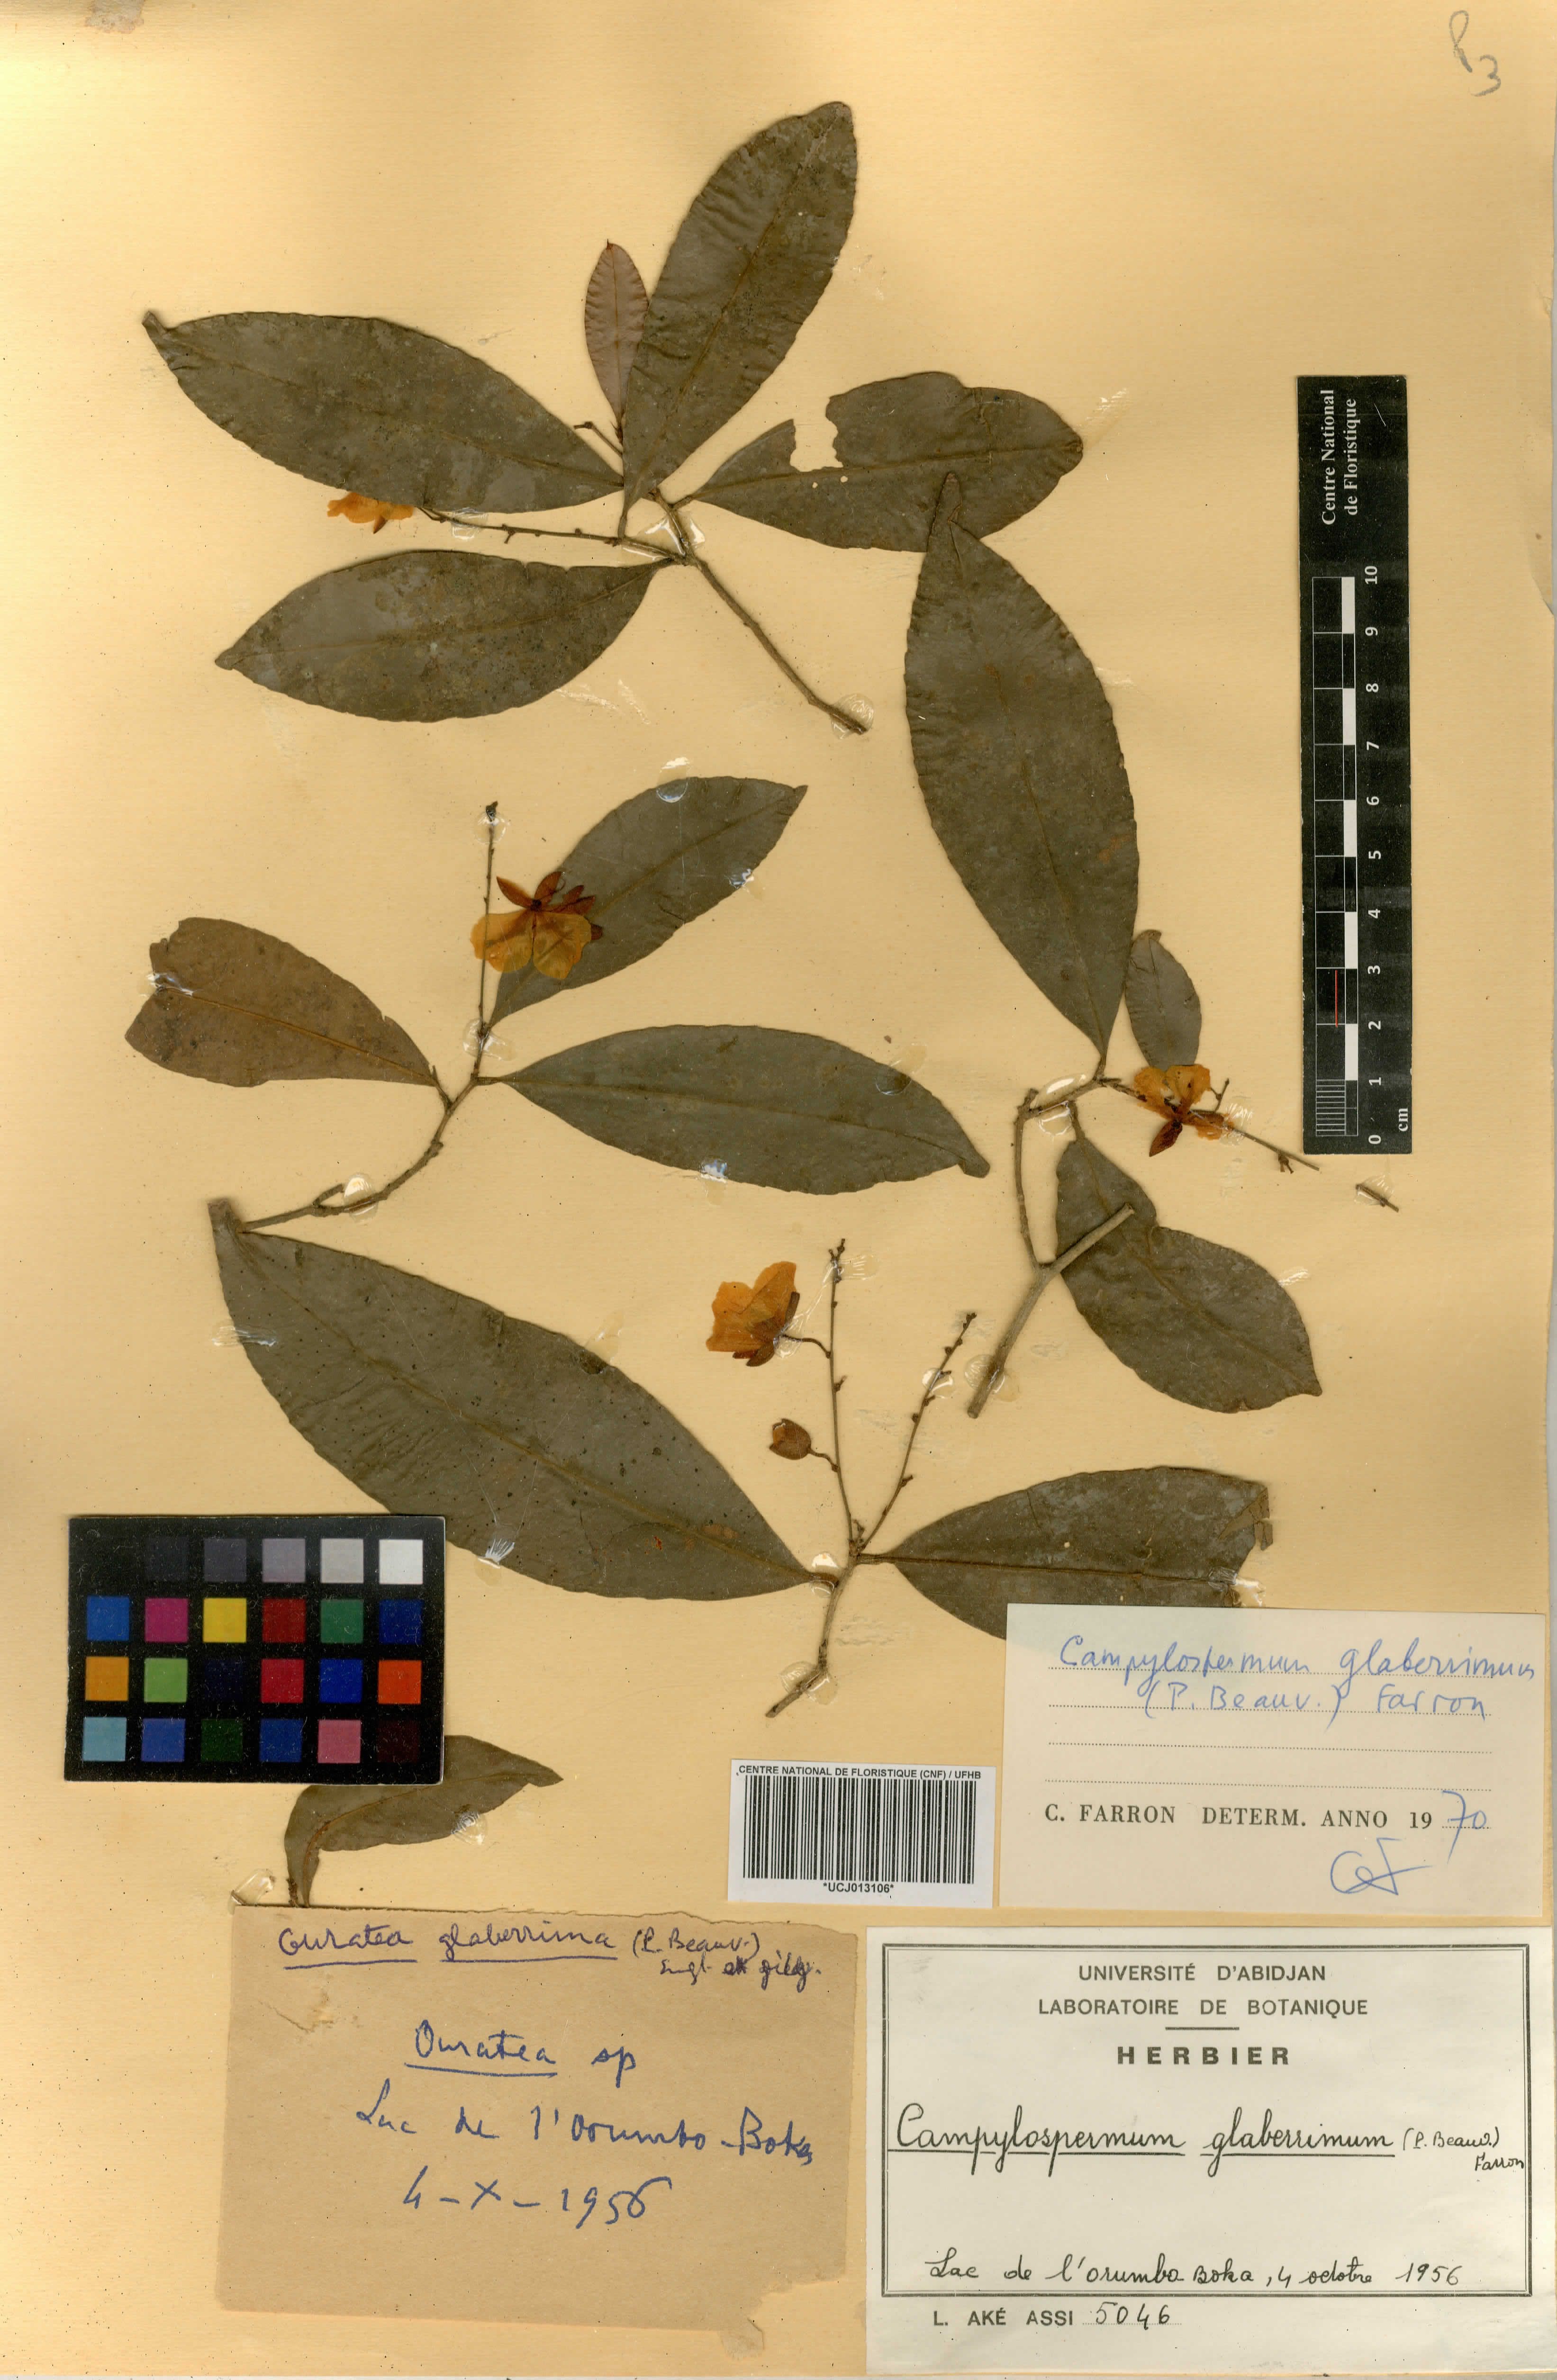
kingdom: Plantae
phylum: Tracheophyta
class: Magnoliopsida
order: Malpighiales
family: Ochnaceae
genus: Campylospermum
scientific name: Campylospermum glaberrimum
